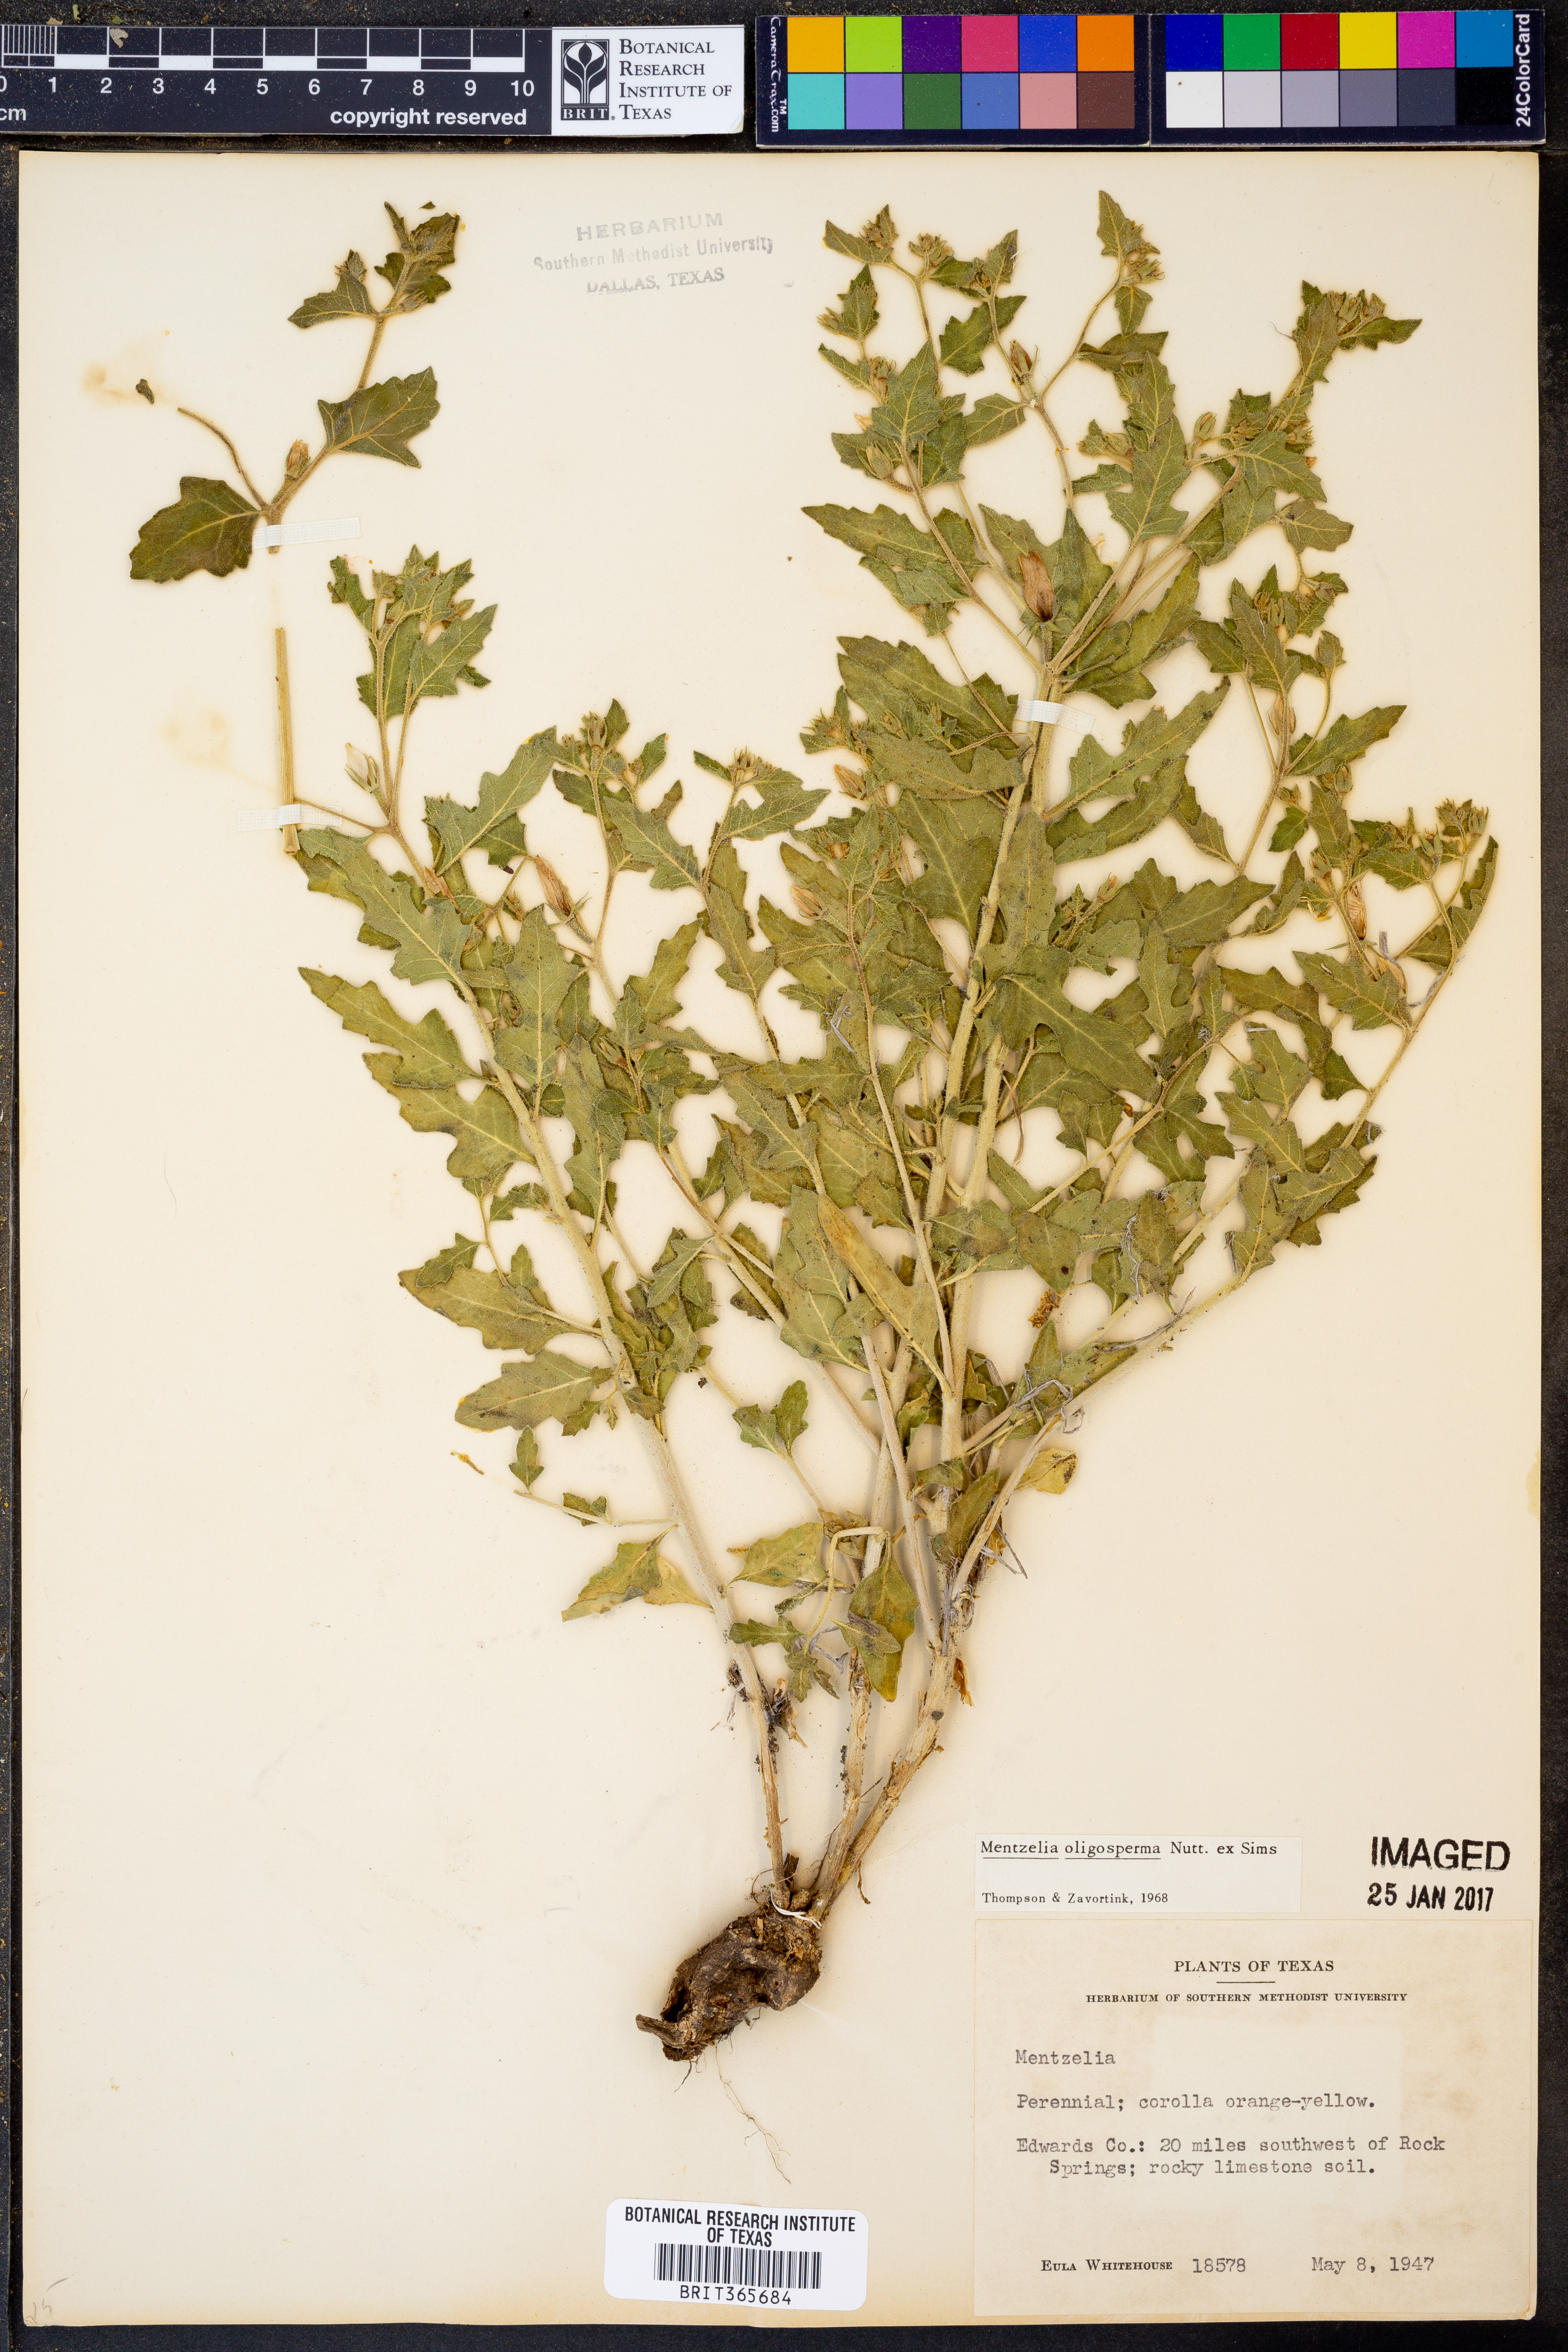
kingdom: Plantae
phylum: Tracheophyta
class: Magnoliopsida
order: Cornales
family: Loasaceae
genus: Mentzelia
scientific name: Mentzelia oligosperma
